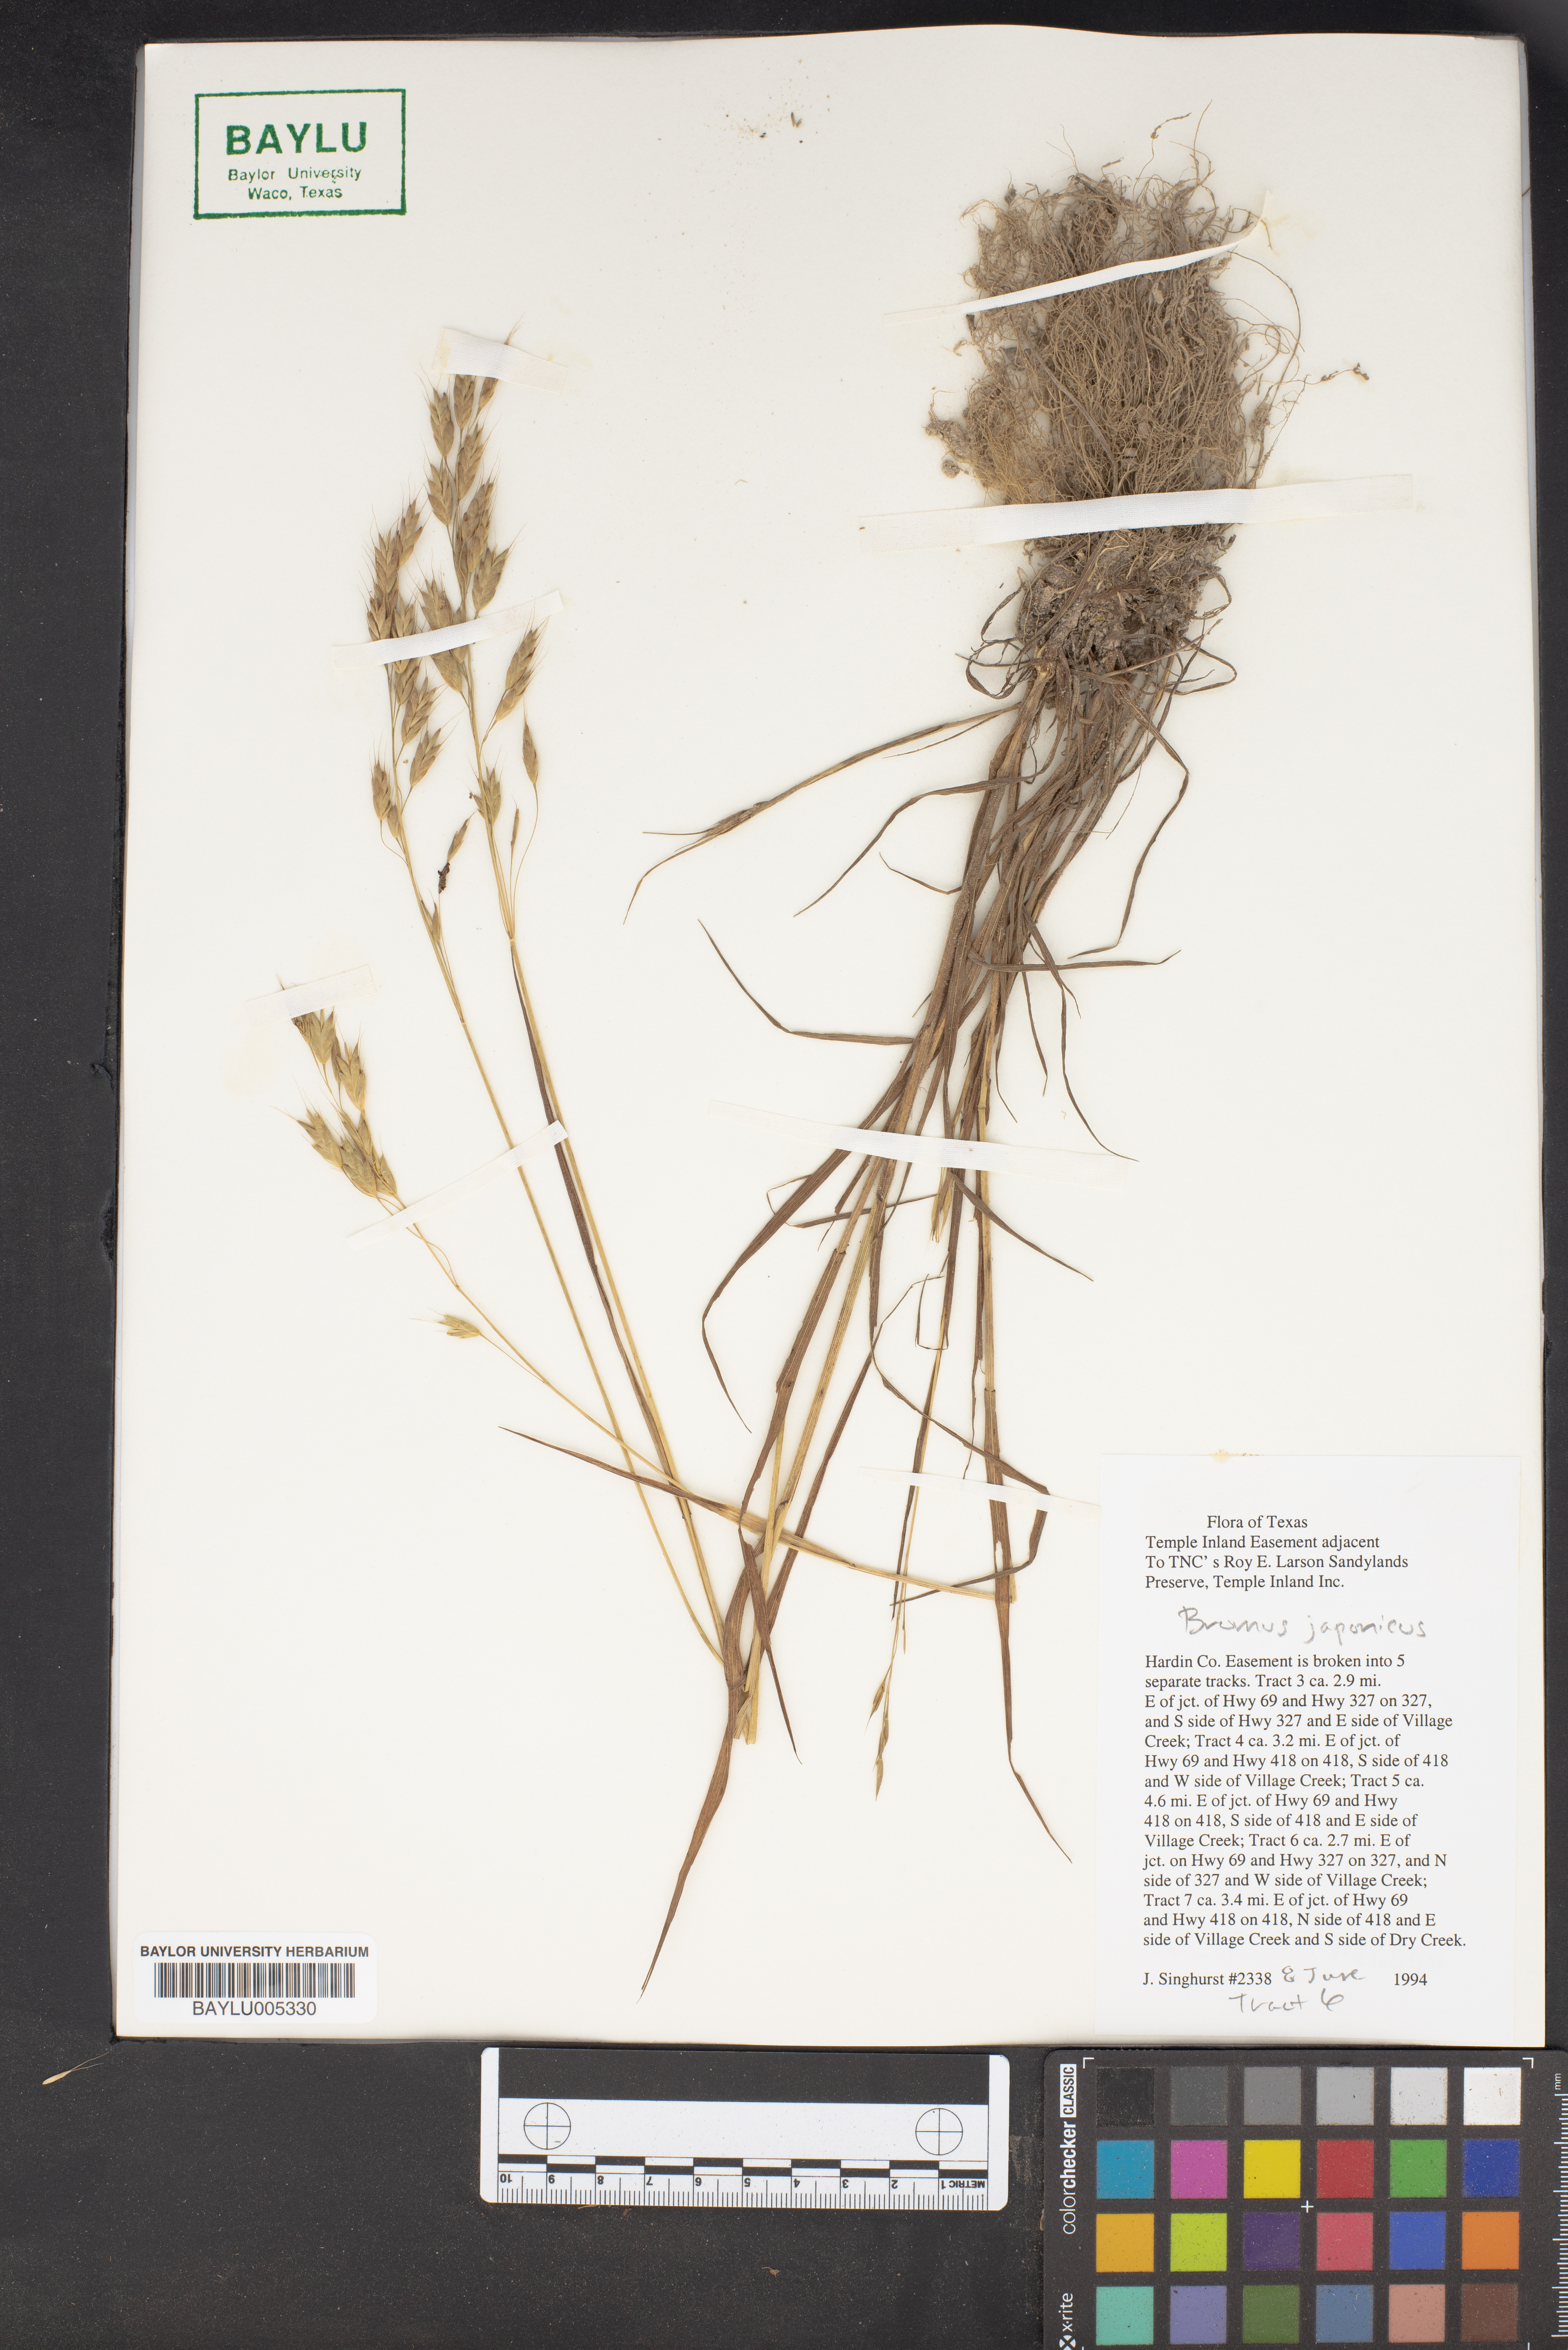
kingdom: Plantae
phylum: Tracheophyta
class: Liliopsida
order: Poales
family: Poaceae
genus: Bromus
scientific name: Bromus japonicus
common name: Japanese brome
